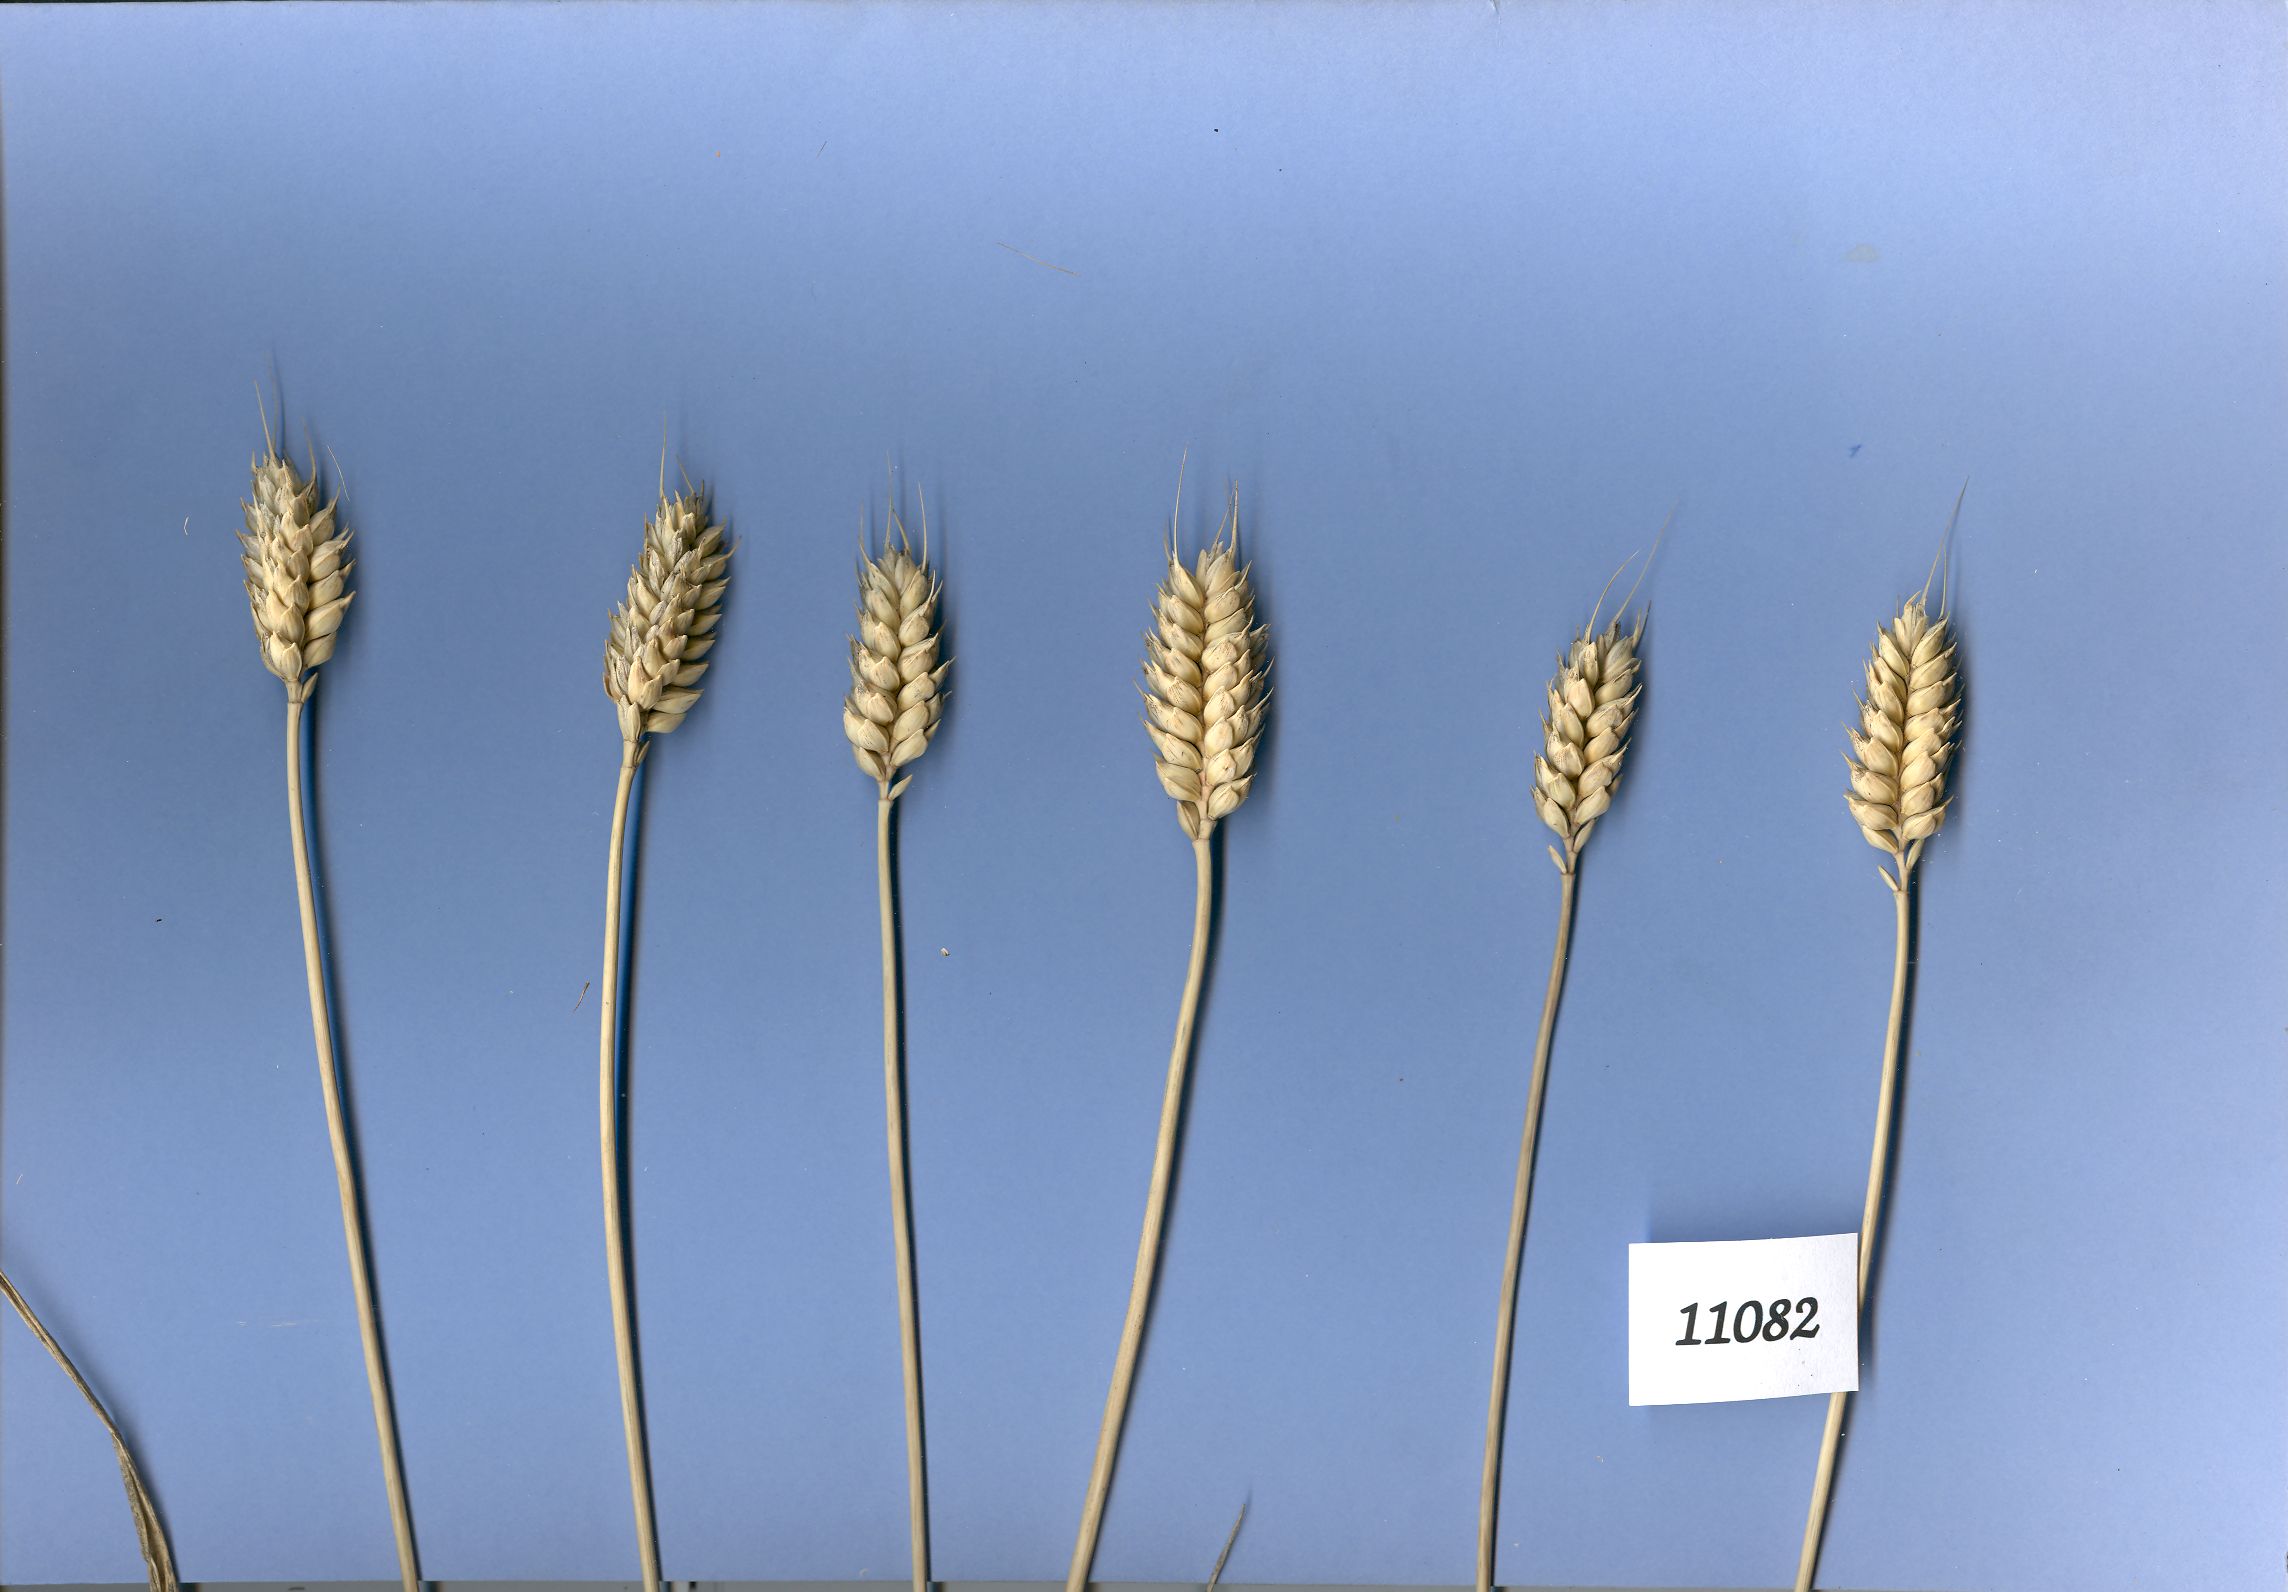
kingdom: Plantae
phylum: Tracheophyta
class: Liliopsida
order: Poales
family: Poaceae
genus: Triticum
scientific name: Triticum aestivum
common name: Common wheat
